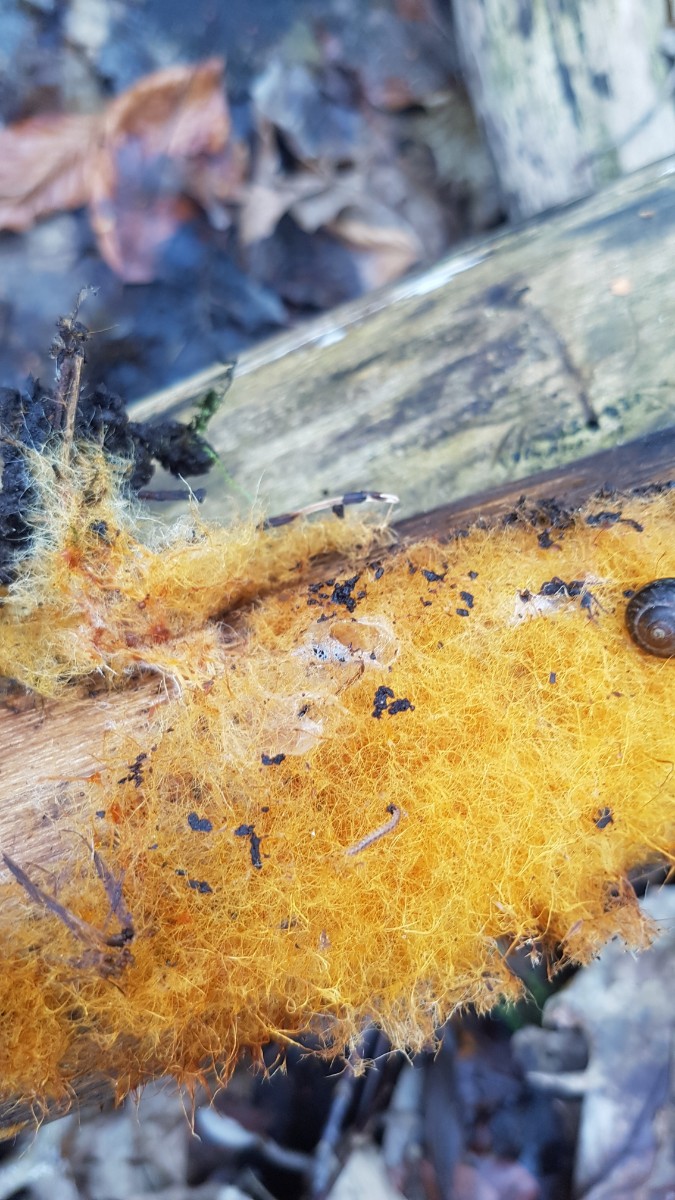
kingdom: Fungi
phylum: Basidiomycota
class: Agaricomycetes
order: Agaricales
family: Psathyrellaceae
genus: Ozonium
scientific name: Ozonium
